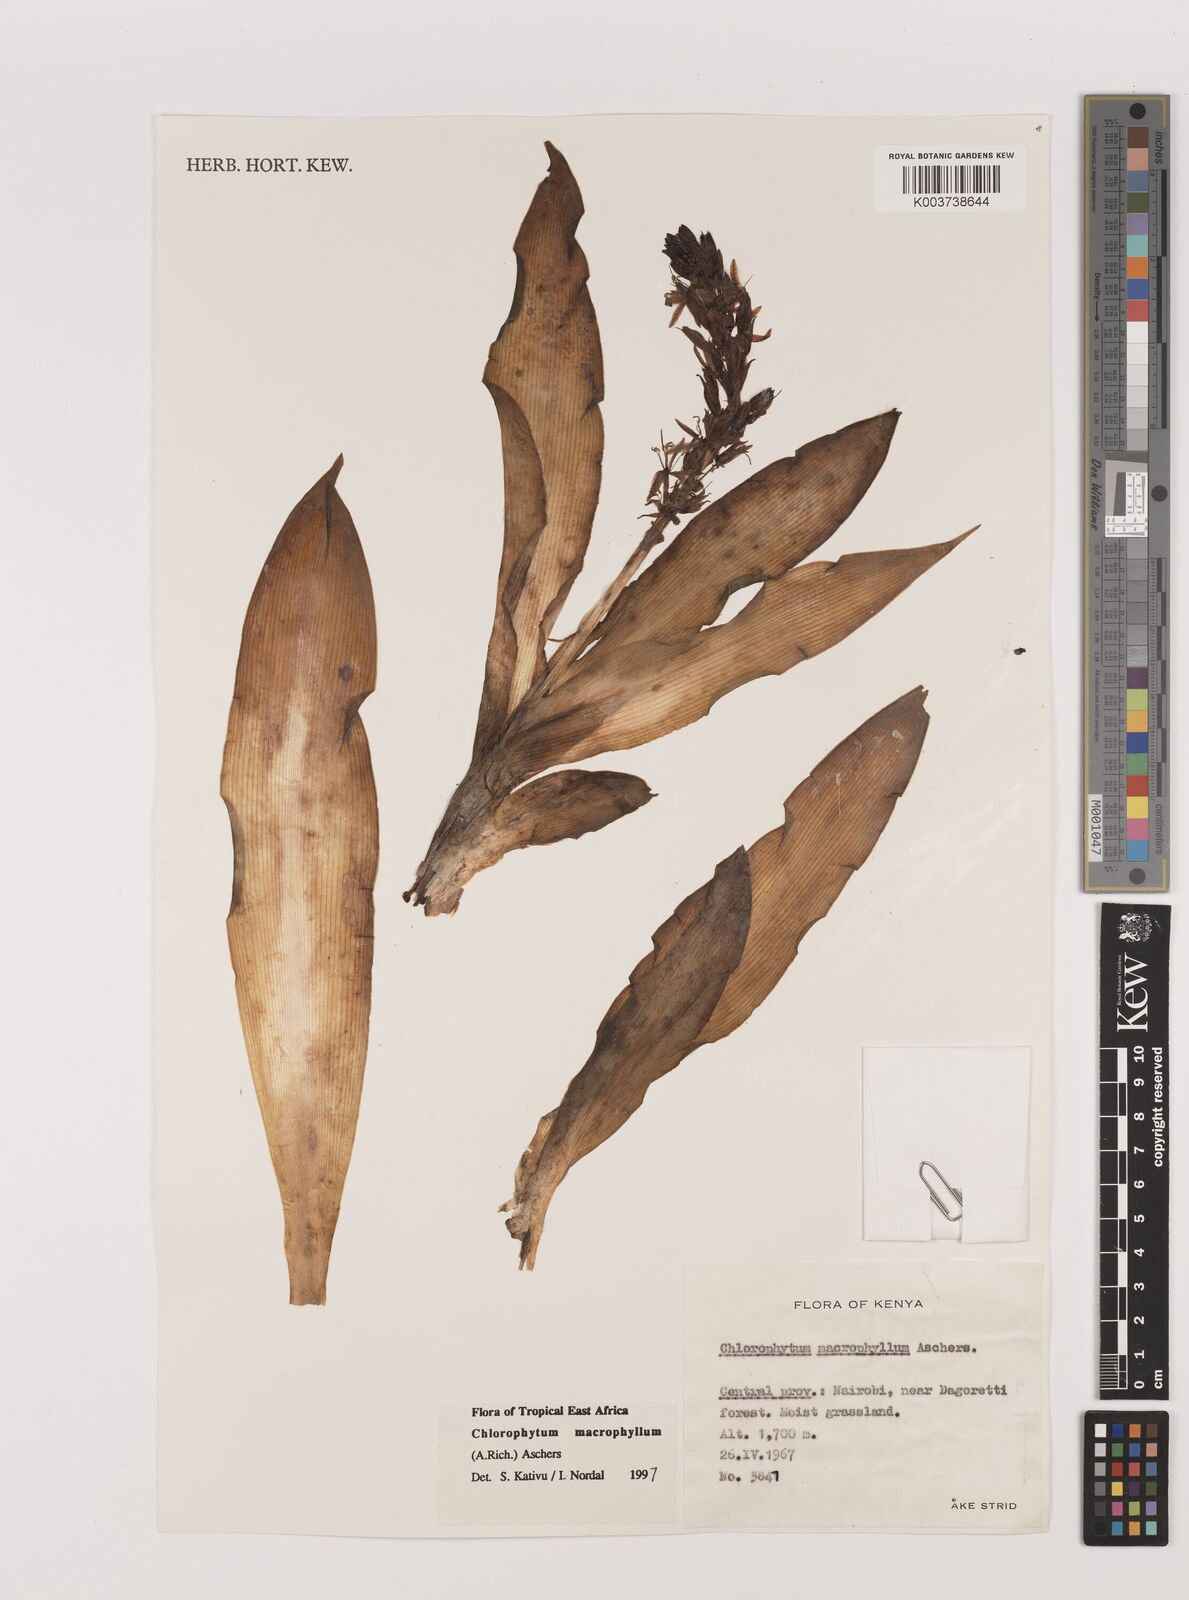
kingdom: Plantae
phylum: Tracheophyta
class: Liliopsida
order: Asparagales
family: Asparagaceae
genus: Chlorophytum
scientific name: Chlorophytum macrophyllum
